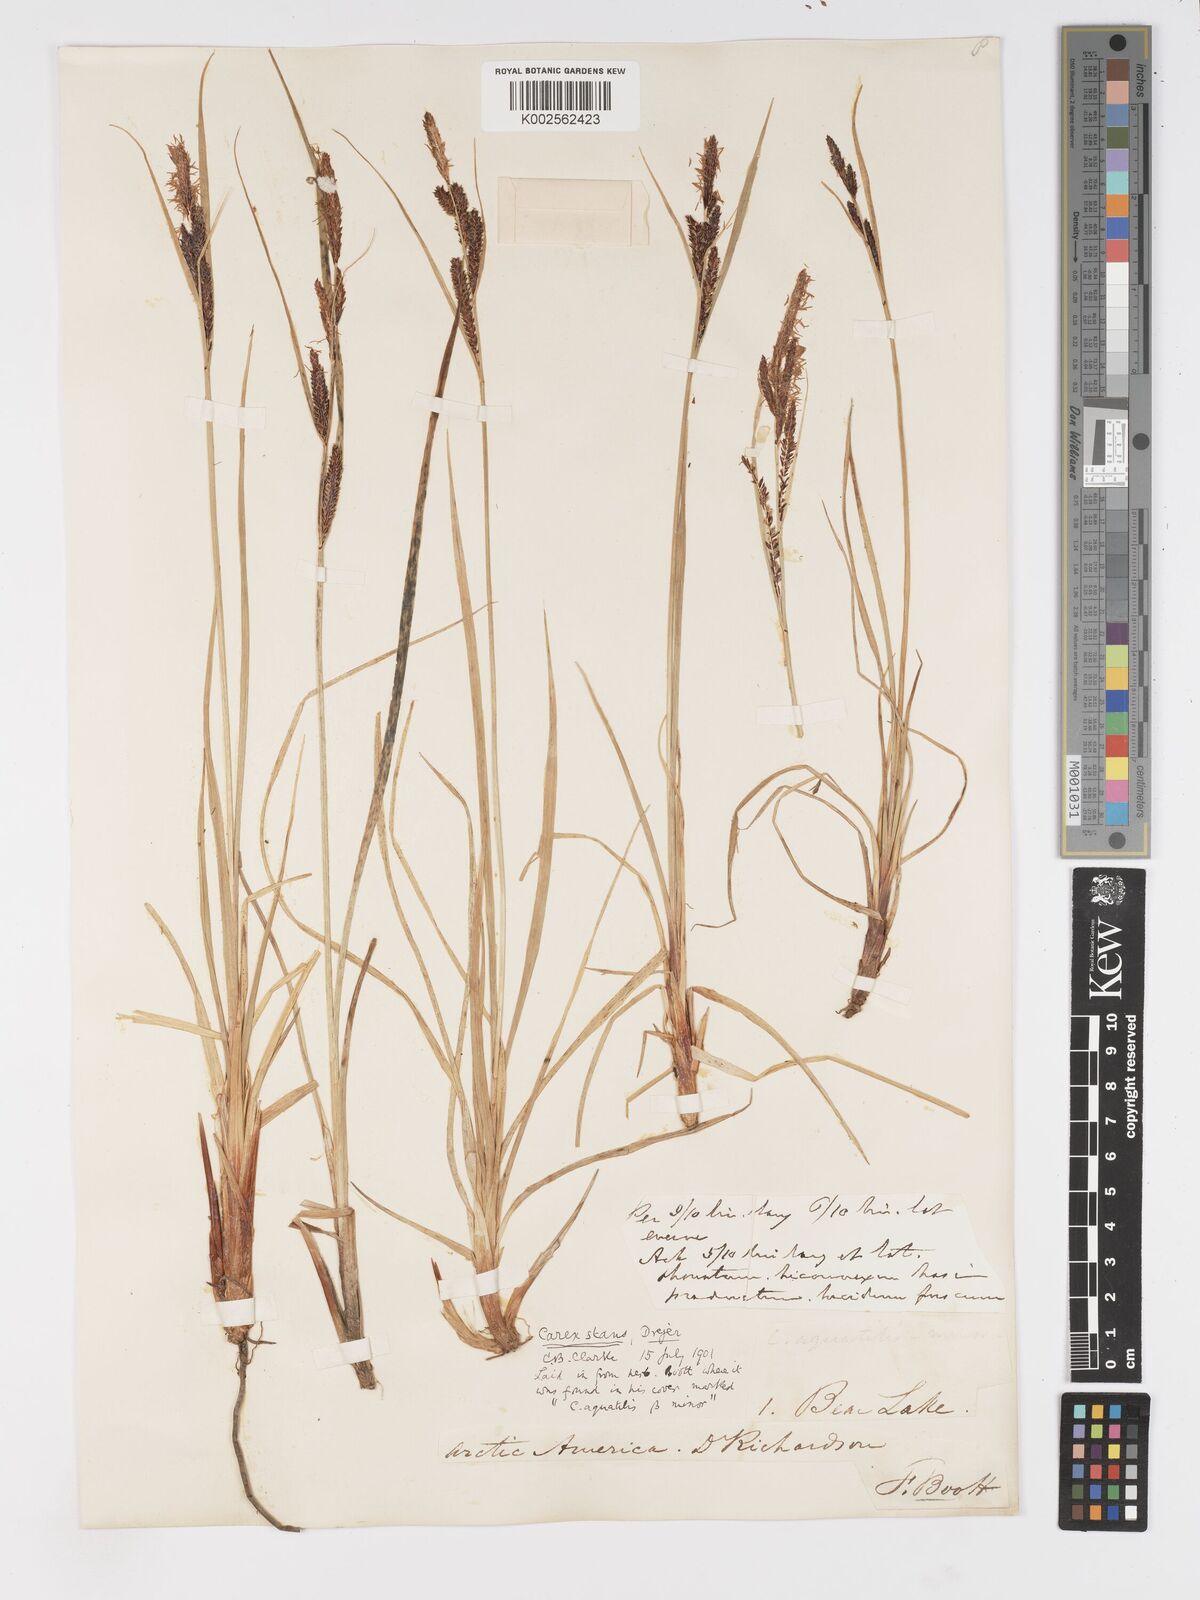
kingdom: Plantae
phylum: Tracheophyta
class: Liliopsida
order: Poales
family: Cyperaceae
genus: Carex
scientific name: Carex
